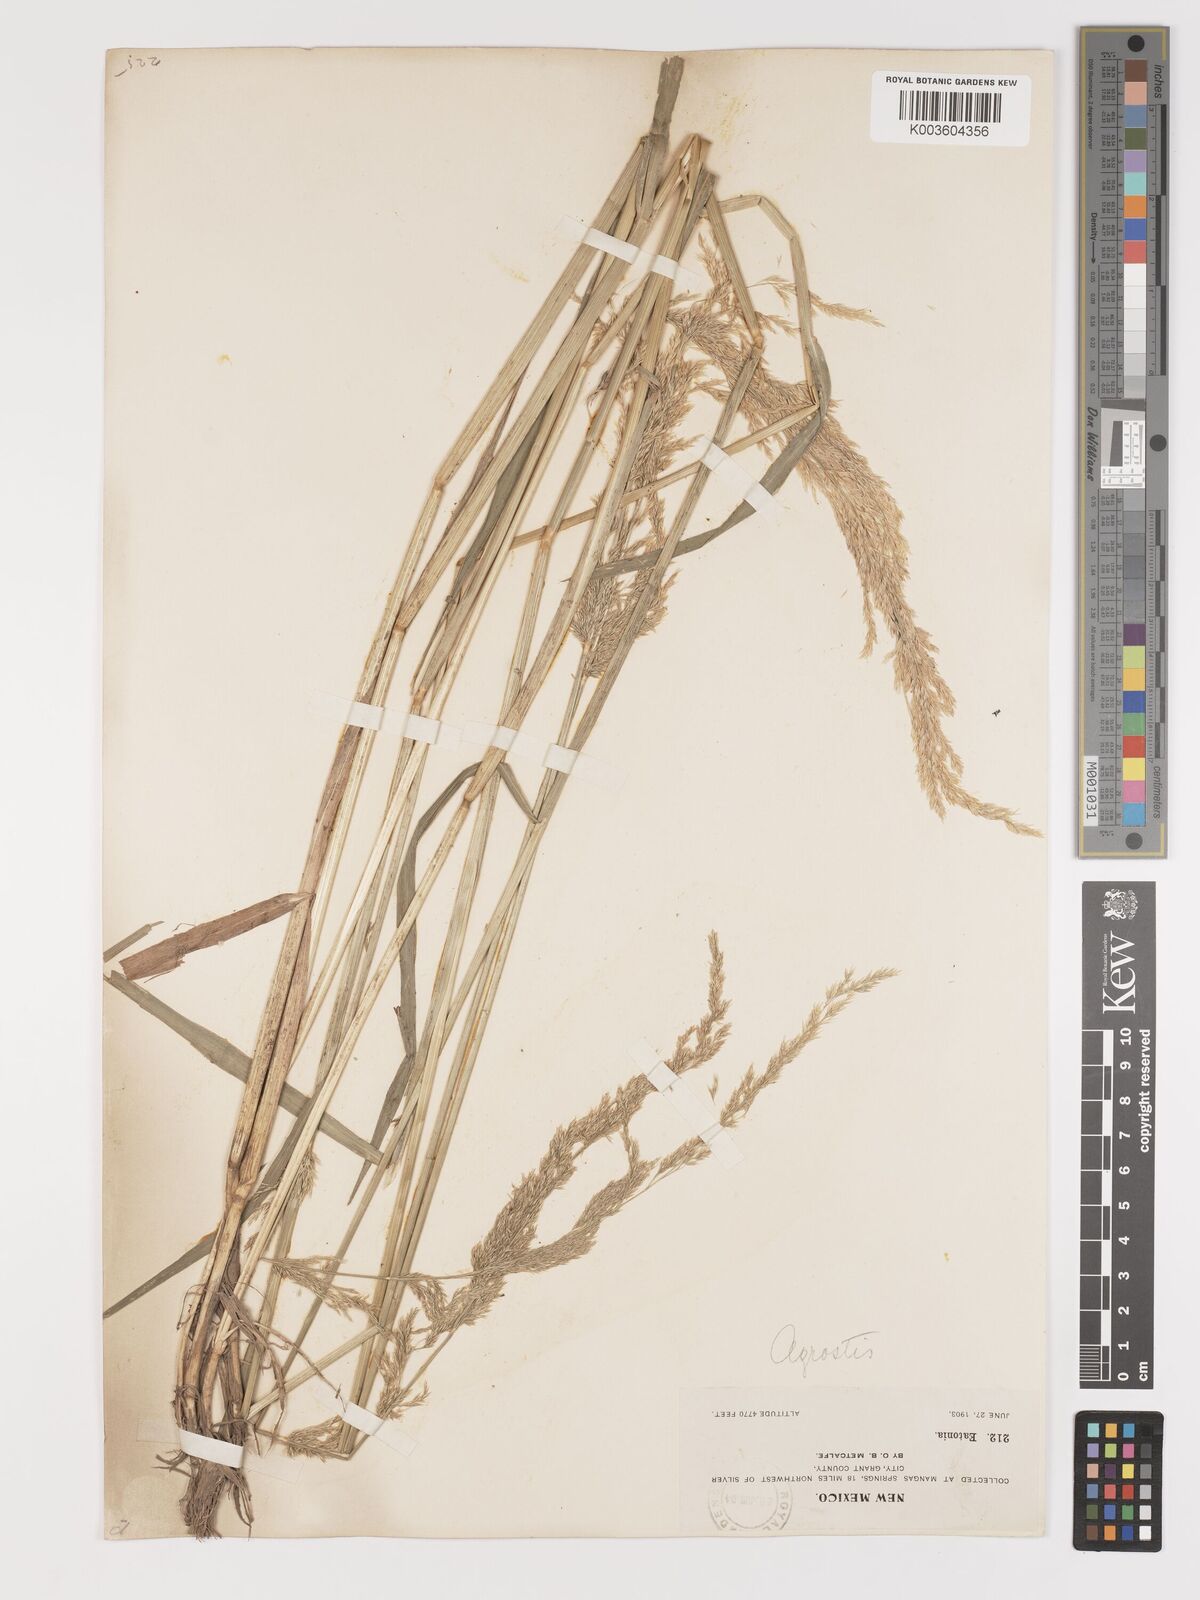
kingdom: Plantae
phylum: Tracheophyta
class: Liliopsida
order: Poales
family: Poaceae
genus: Agrostis
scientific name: Agrostis exarata
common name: Spike bent
